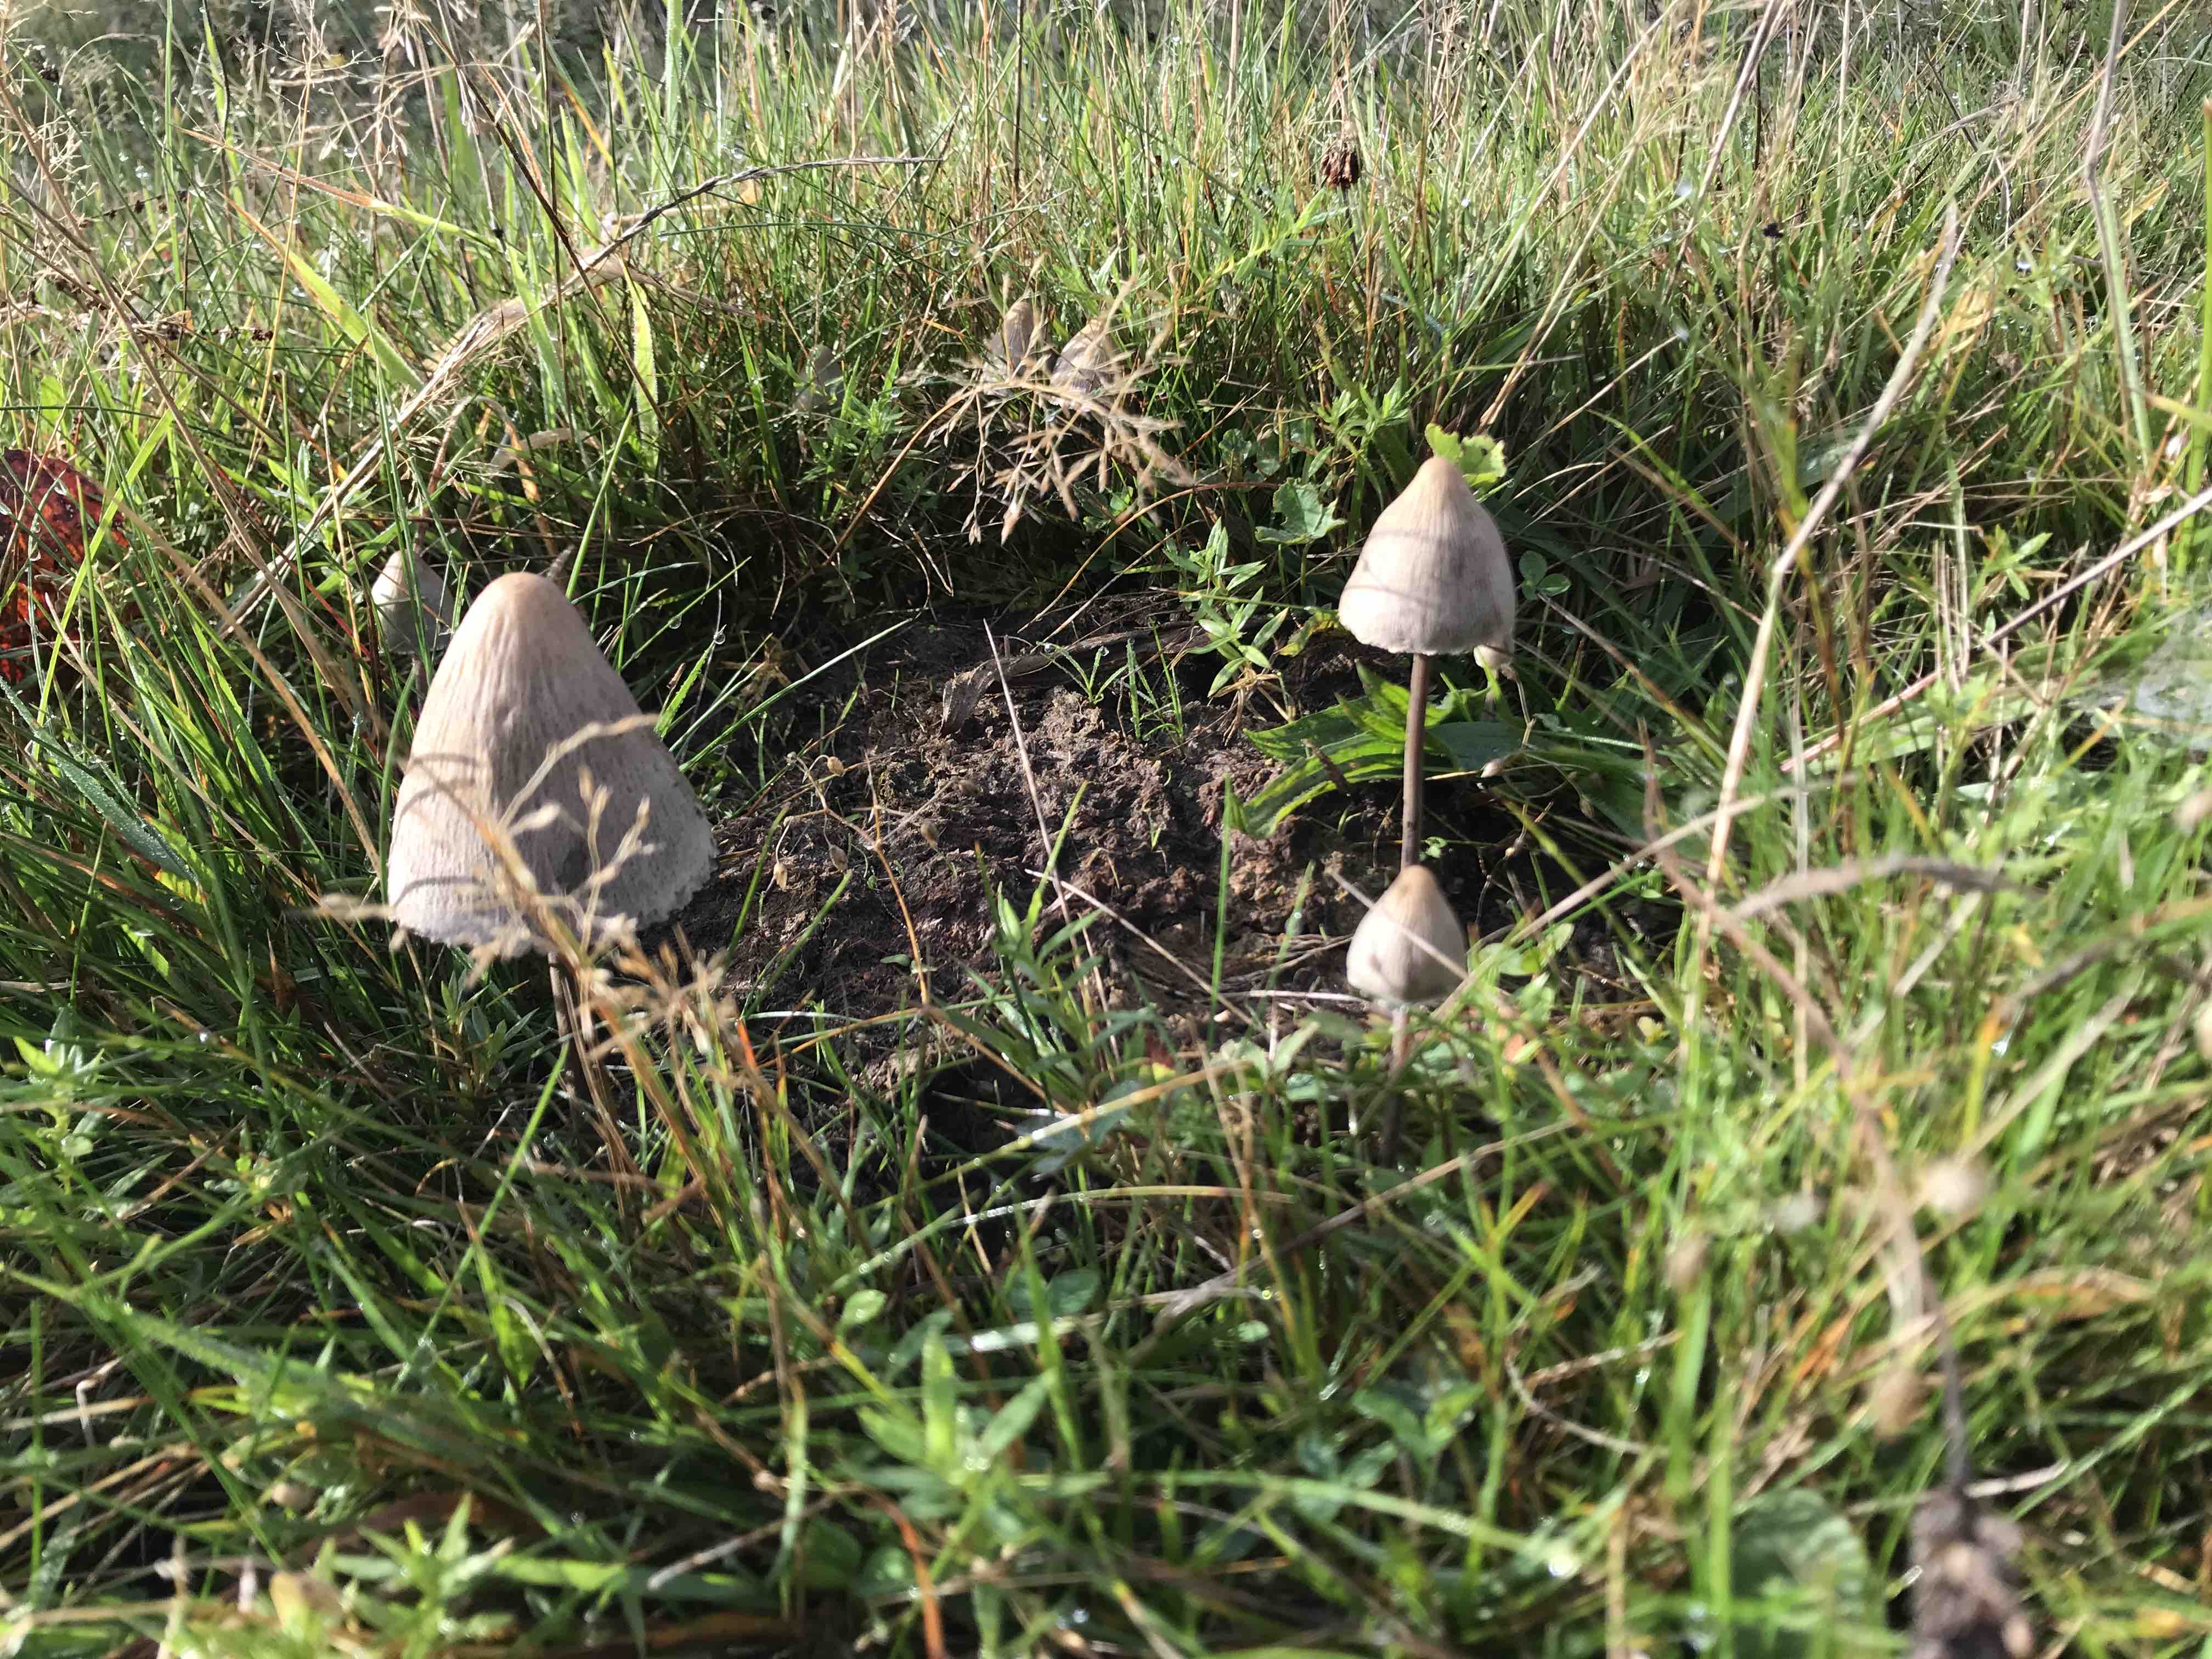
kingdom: Fungi
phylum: Basidiomycota
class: Agaricomycetes
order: Agaricales
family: Bolbitiaceae
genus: Panaeolus
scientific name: Panaeolus papilionaceus
